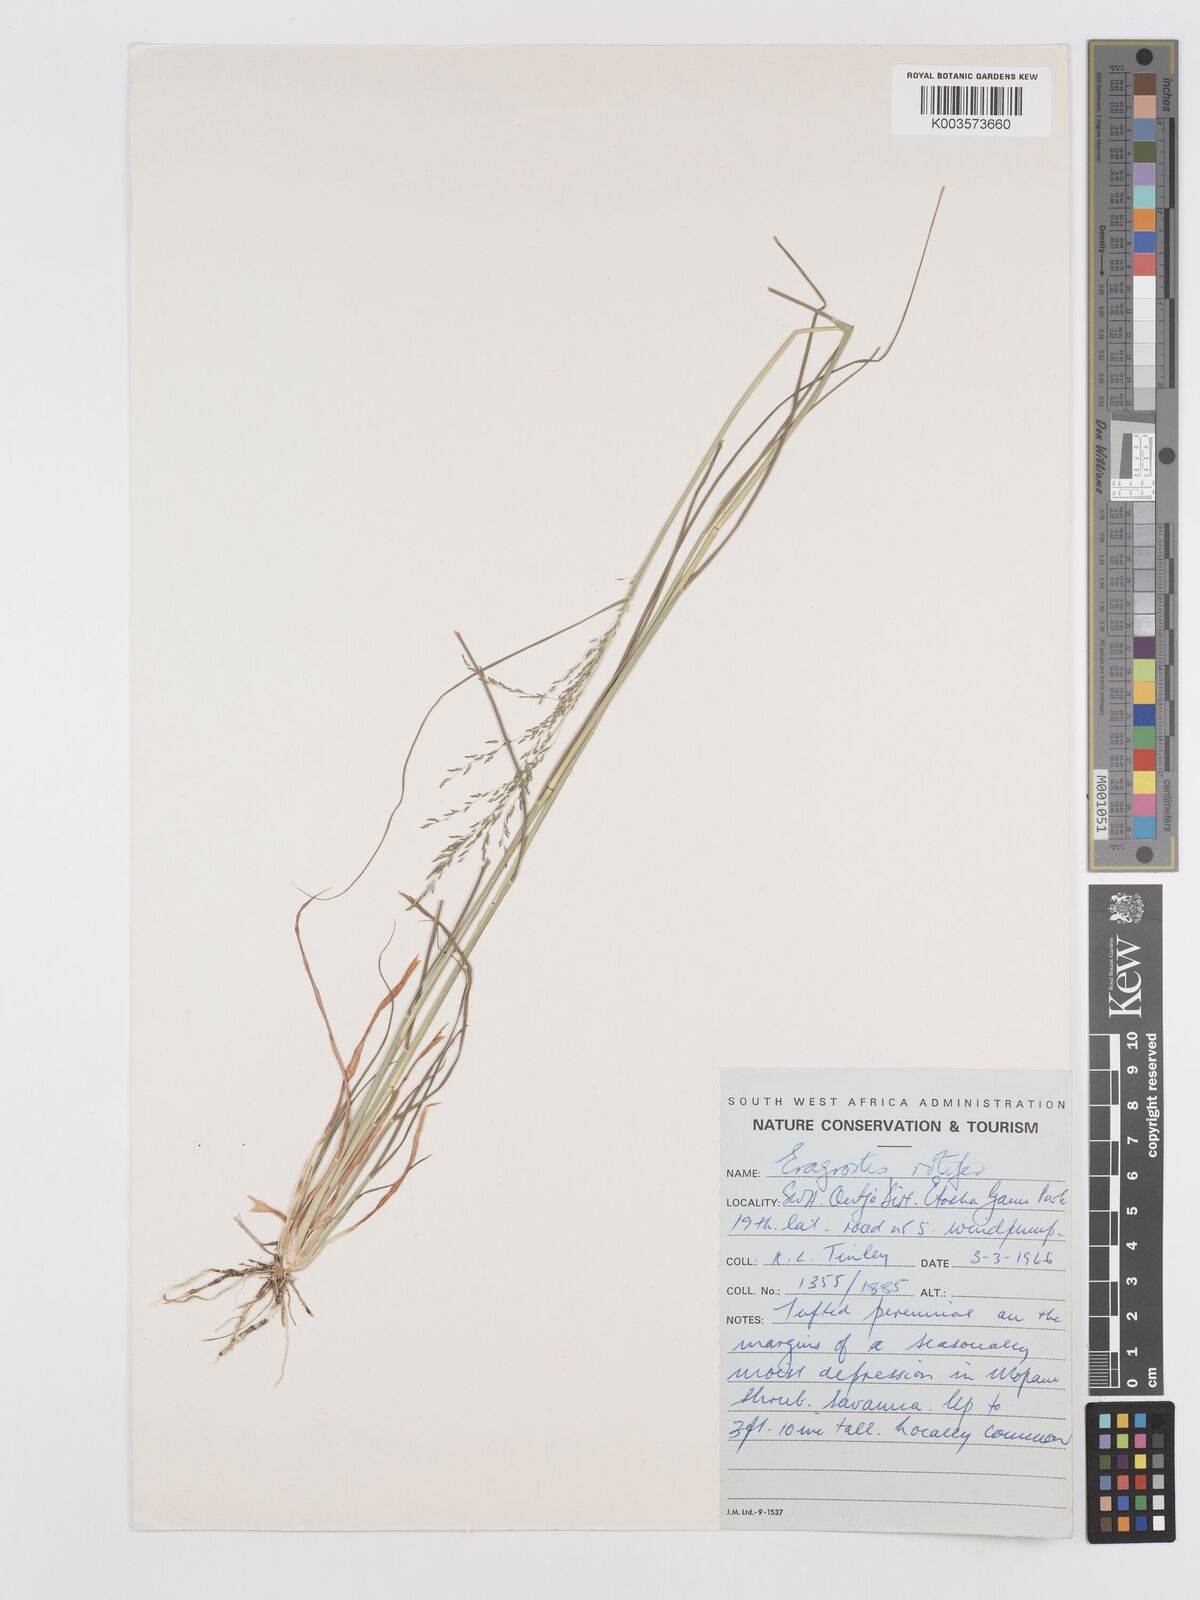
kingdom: Plantae
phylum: Tracheophyta
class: Liliopsida
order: Poales
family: Poaceae
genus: Eragrostis
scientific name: Eragrostis rotifer
